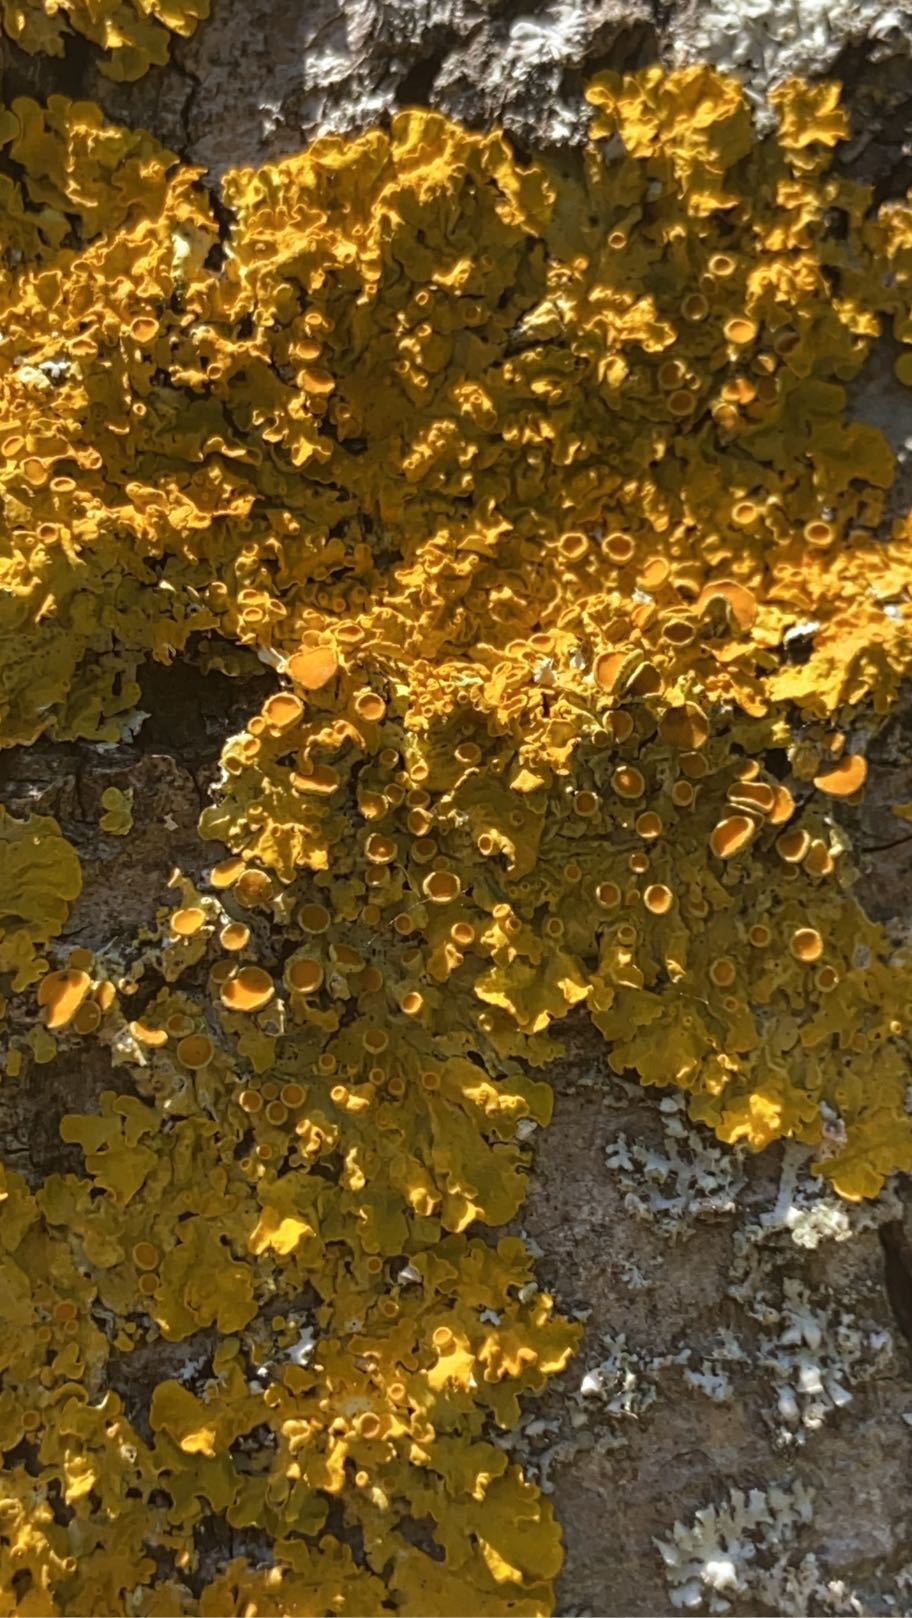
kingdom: Fungi
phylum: Ascomycota
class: Lecanoromycetes
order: Teloschistales
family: Teloschistaceae
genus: Xanthoria
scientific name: Xanthoria parietina
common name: Almindelig væggelav
